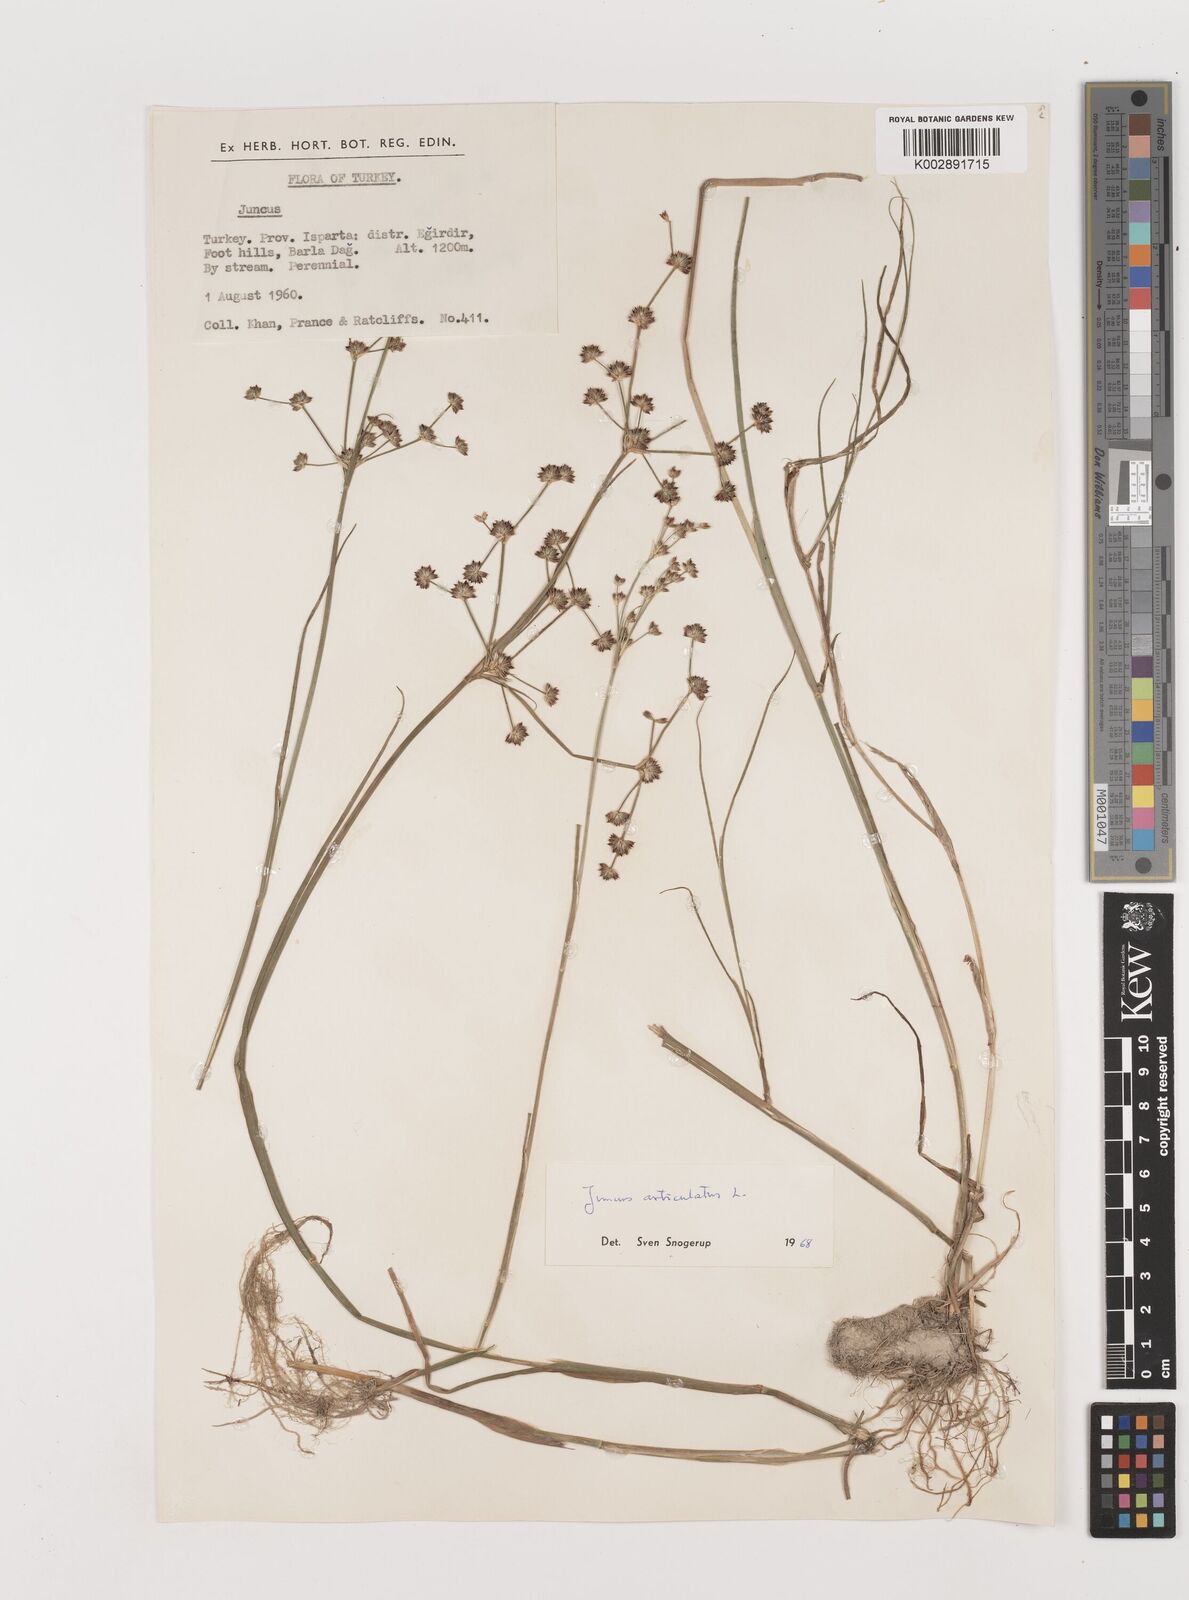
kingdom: Plantae
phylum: Tracheophyta
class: Liliopsida
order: Poales
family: Juncaceae
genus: Juncus
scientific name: Juncus articulatus
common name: Jointed rush
